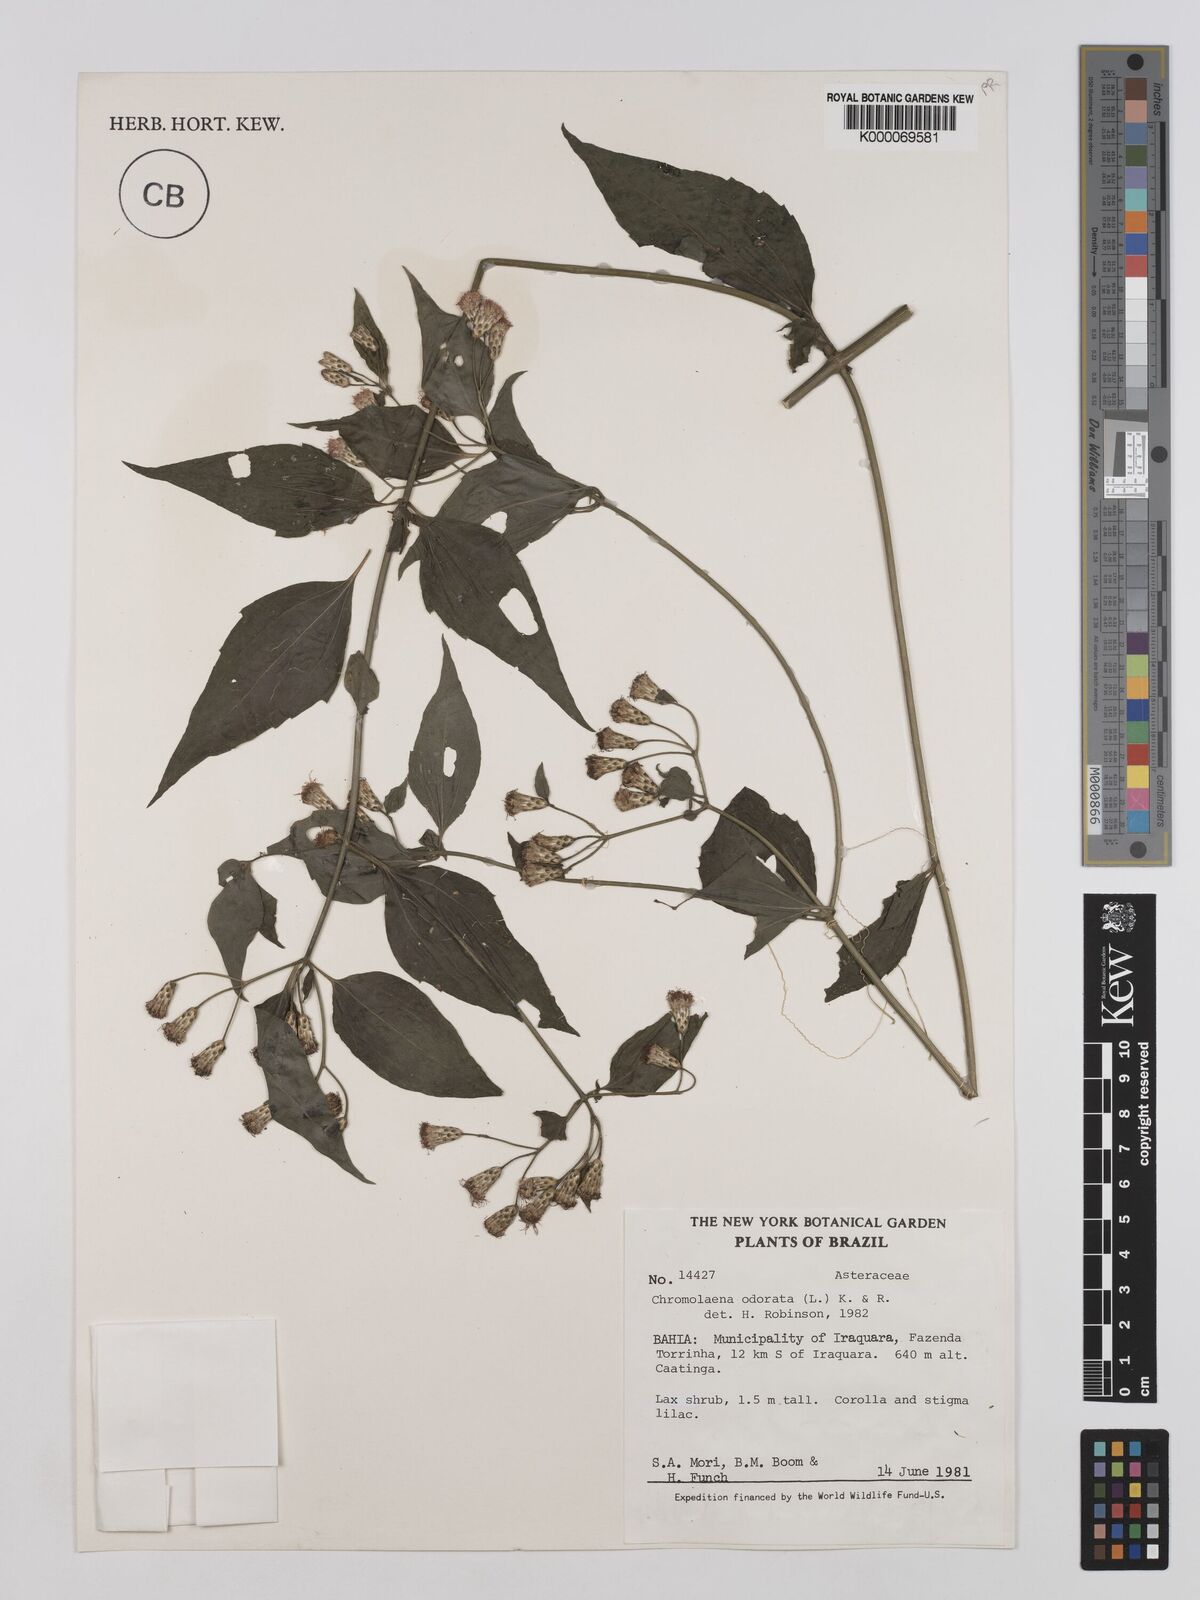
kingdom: Plantae
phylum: Tracheophyta
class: Magnoliopsida
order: Asterales
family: Asteraceae
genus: Chromolaena
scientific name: Chromolaena odorata
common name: Siamweed
